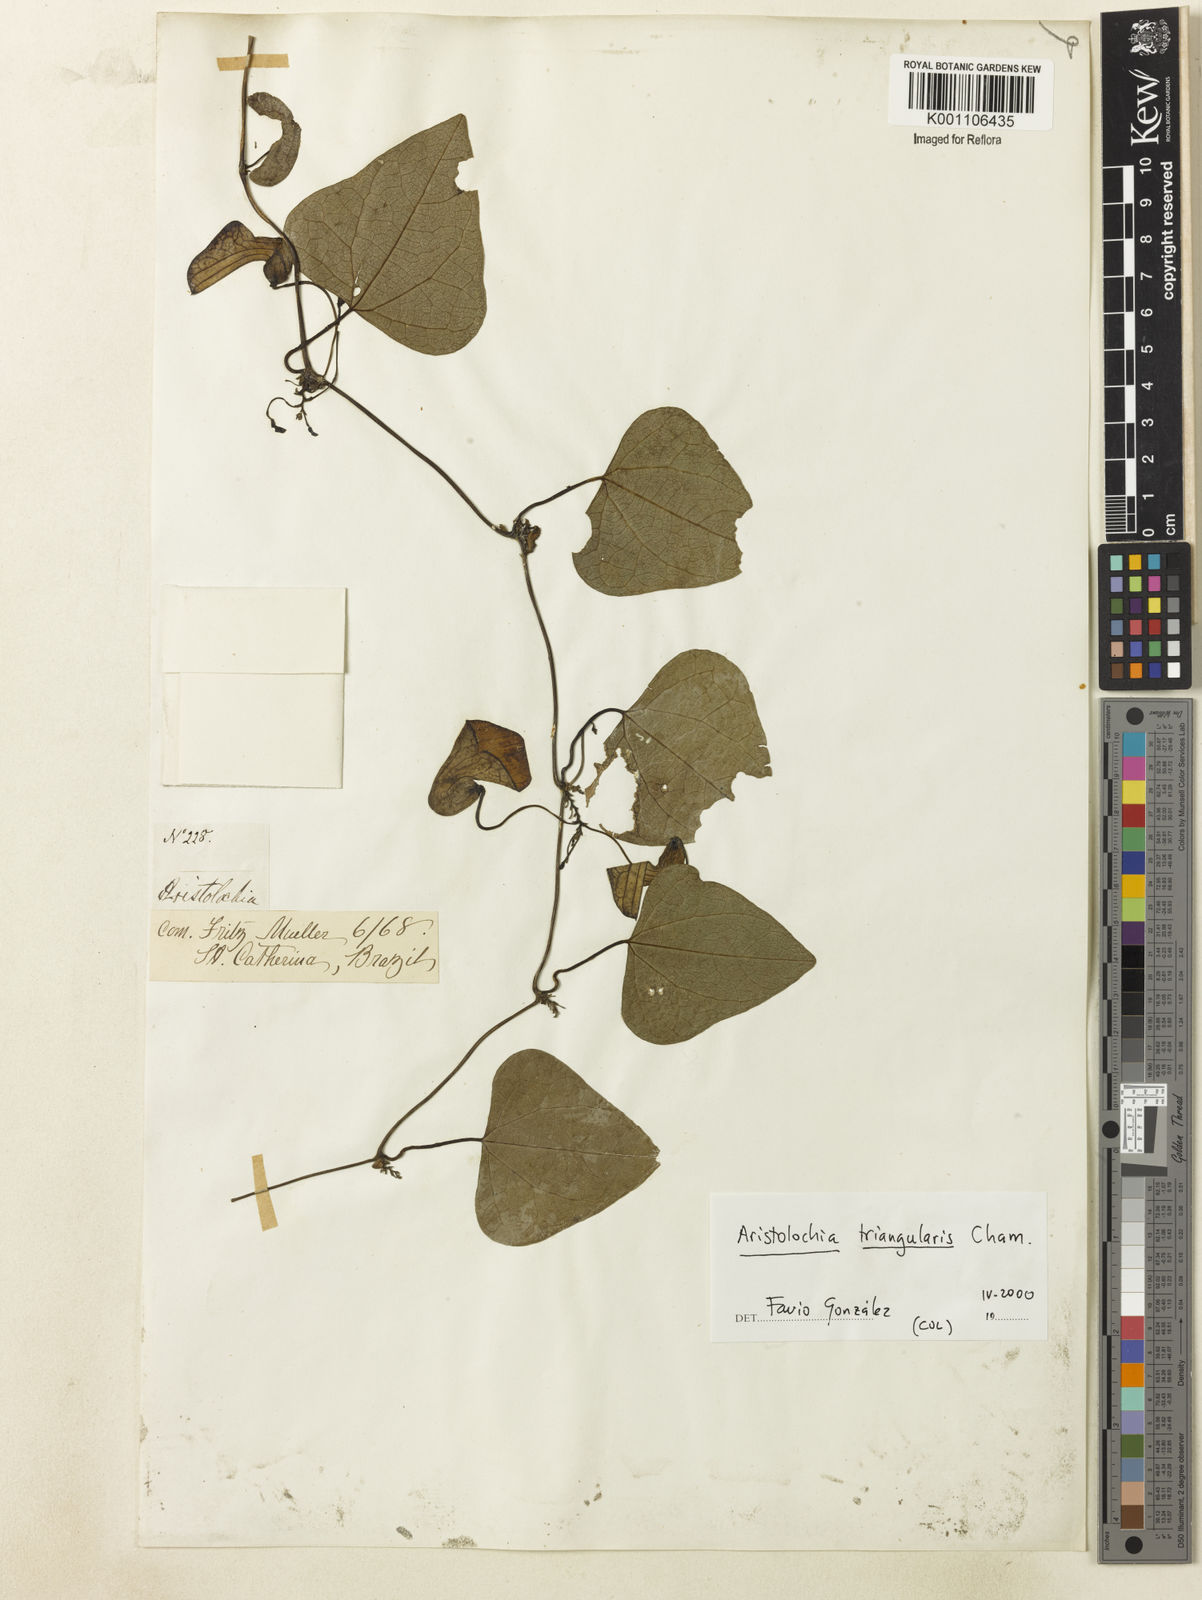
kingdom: Plantae
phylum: Tracheophyta
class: Magnoliopsida
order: Piperales
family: Aristolochiaceae
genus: Aristolochia
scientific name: Aristolochia triangularis
